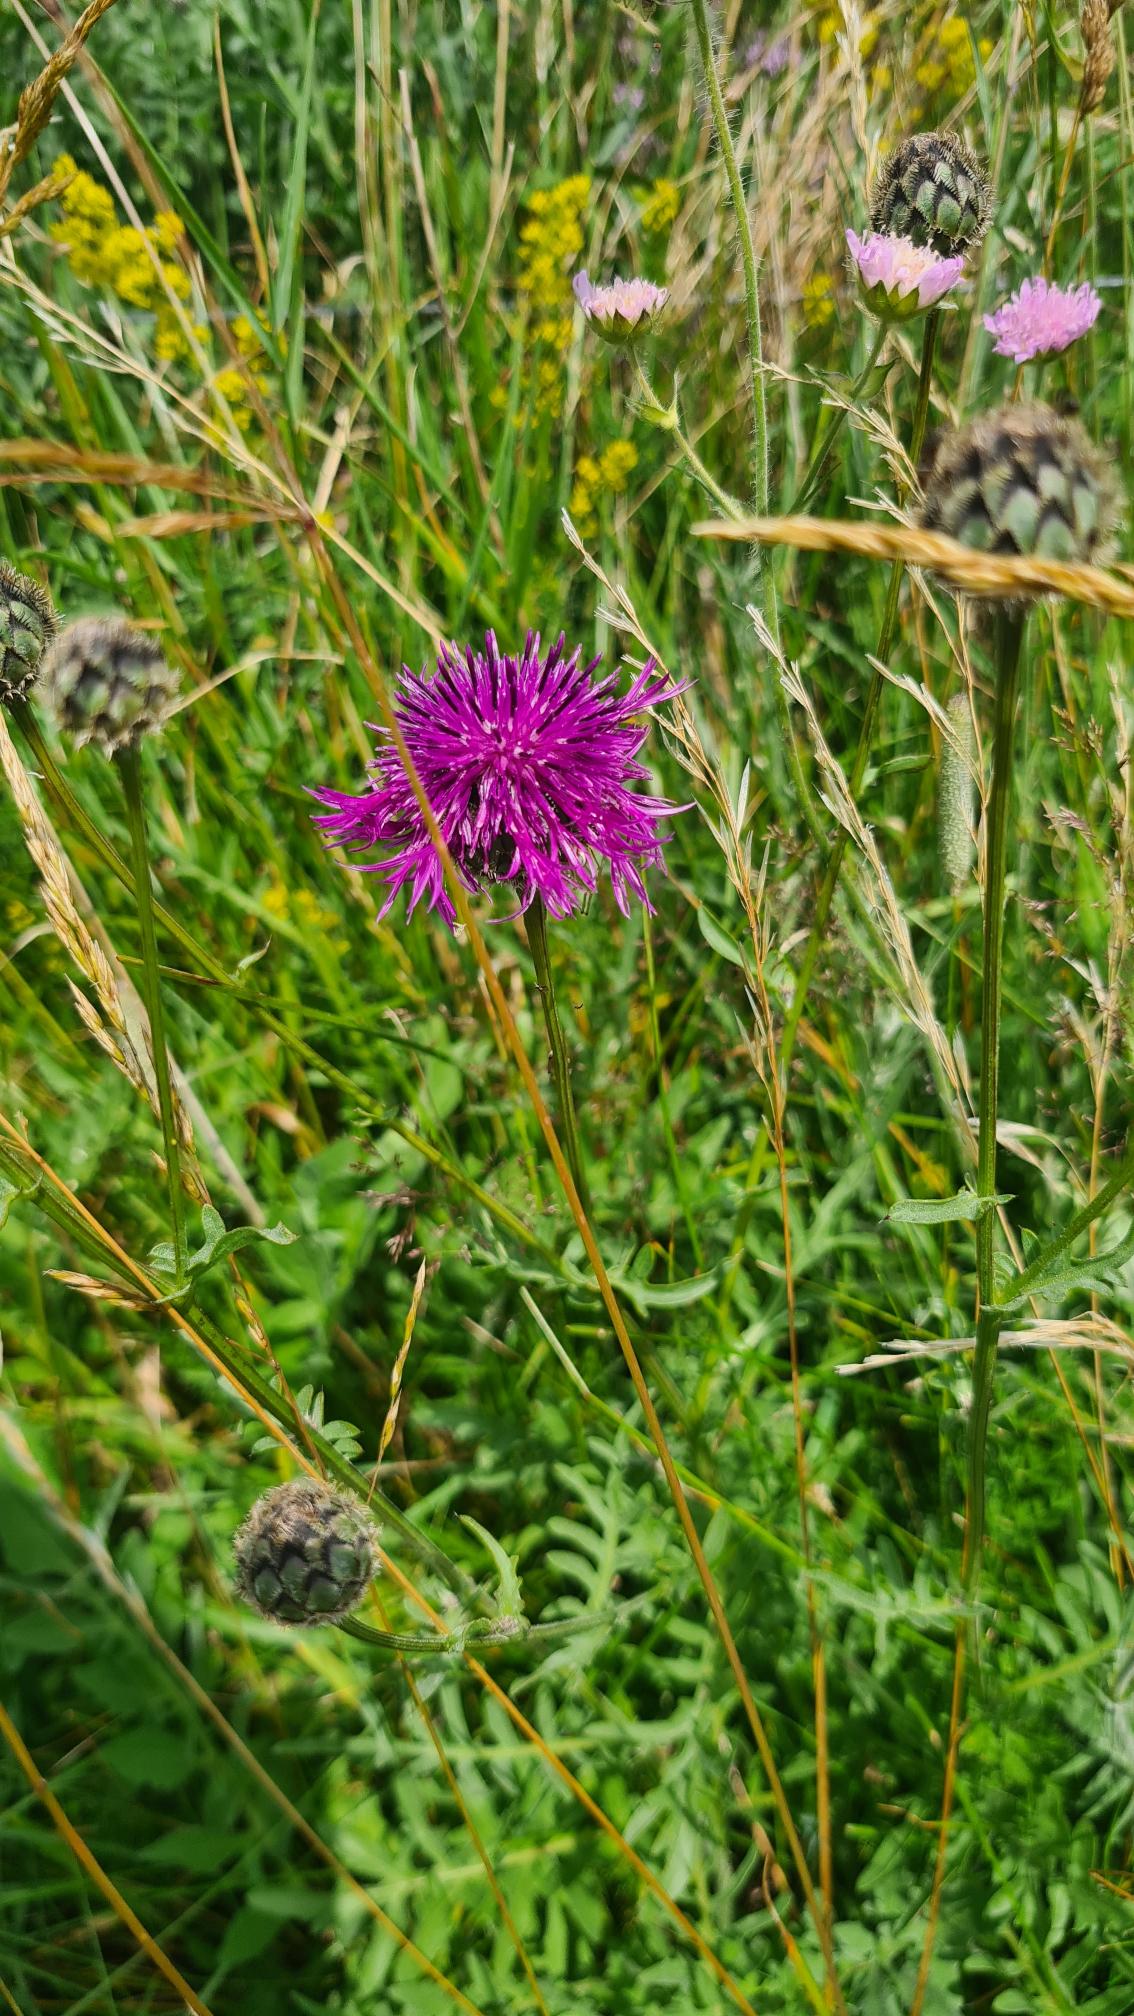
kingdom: Plantae
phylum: Tracheophyta
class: Magnoliopsida
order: Asterales
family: Asteraceae
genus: Centaurea
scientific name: Centaurea scabiosa
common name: Stor knopurt
